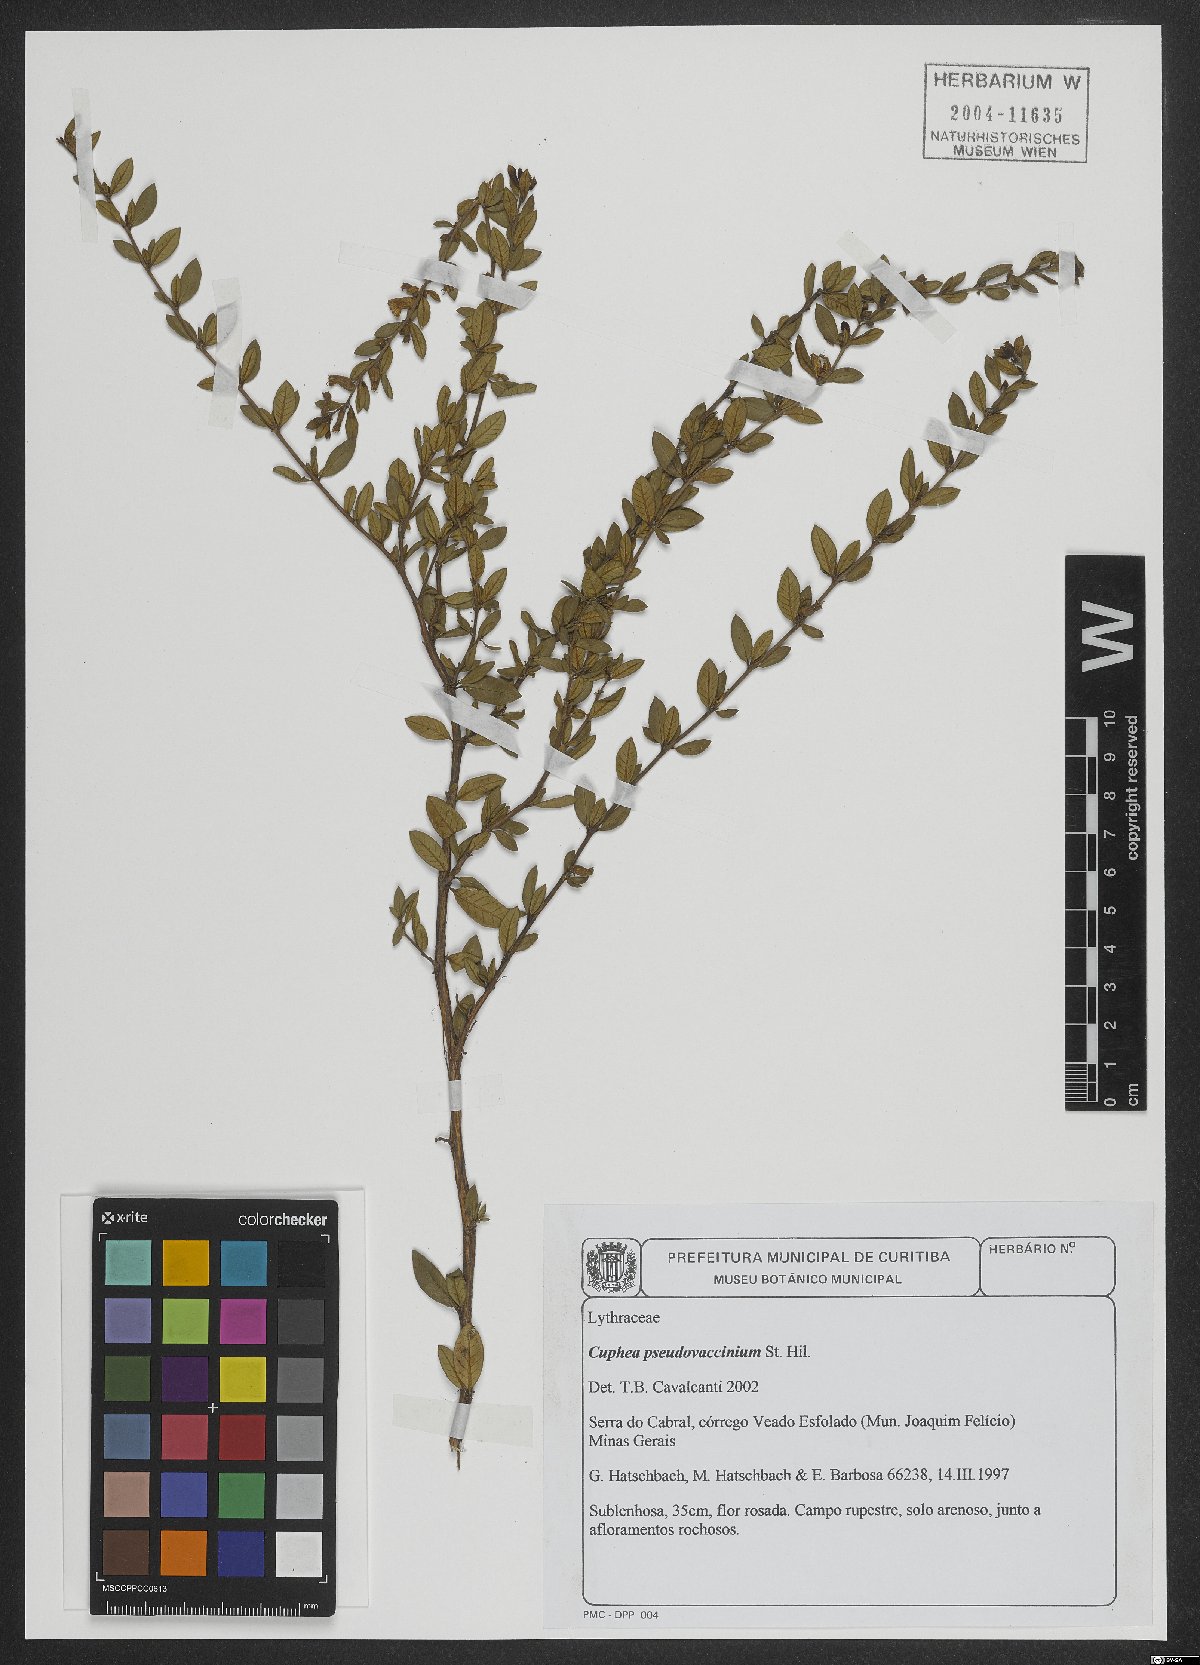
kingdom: Plantae
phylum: Tracheophyta
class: Magnoliopsida
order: Myrtales
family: Lythraceae
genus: Cuphea
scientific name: Cuphea pseudovaccinium
